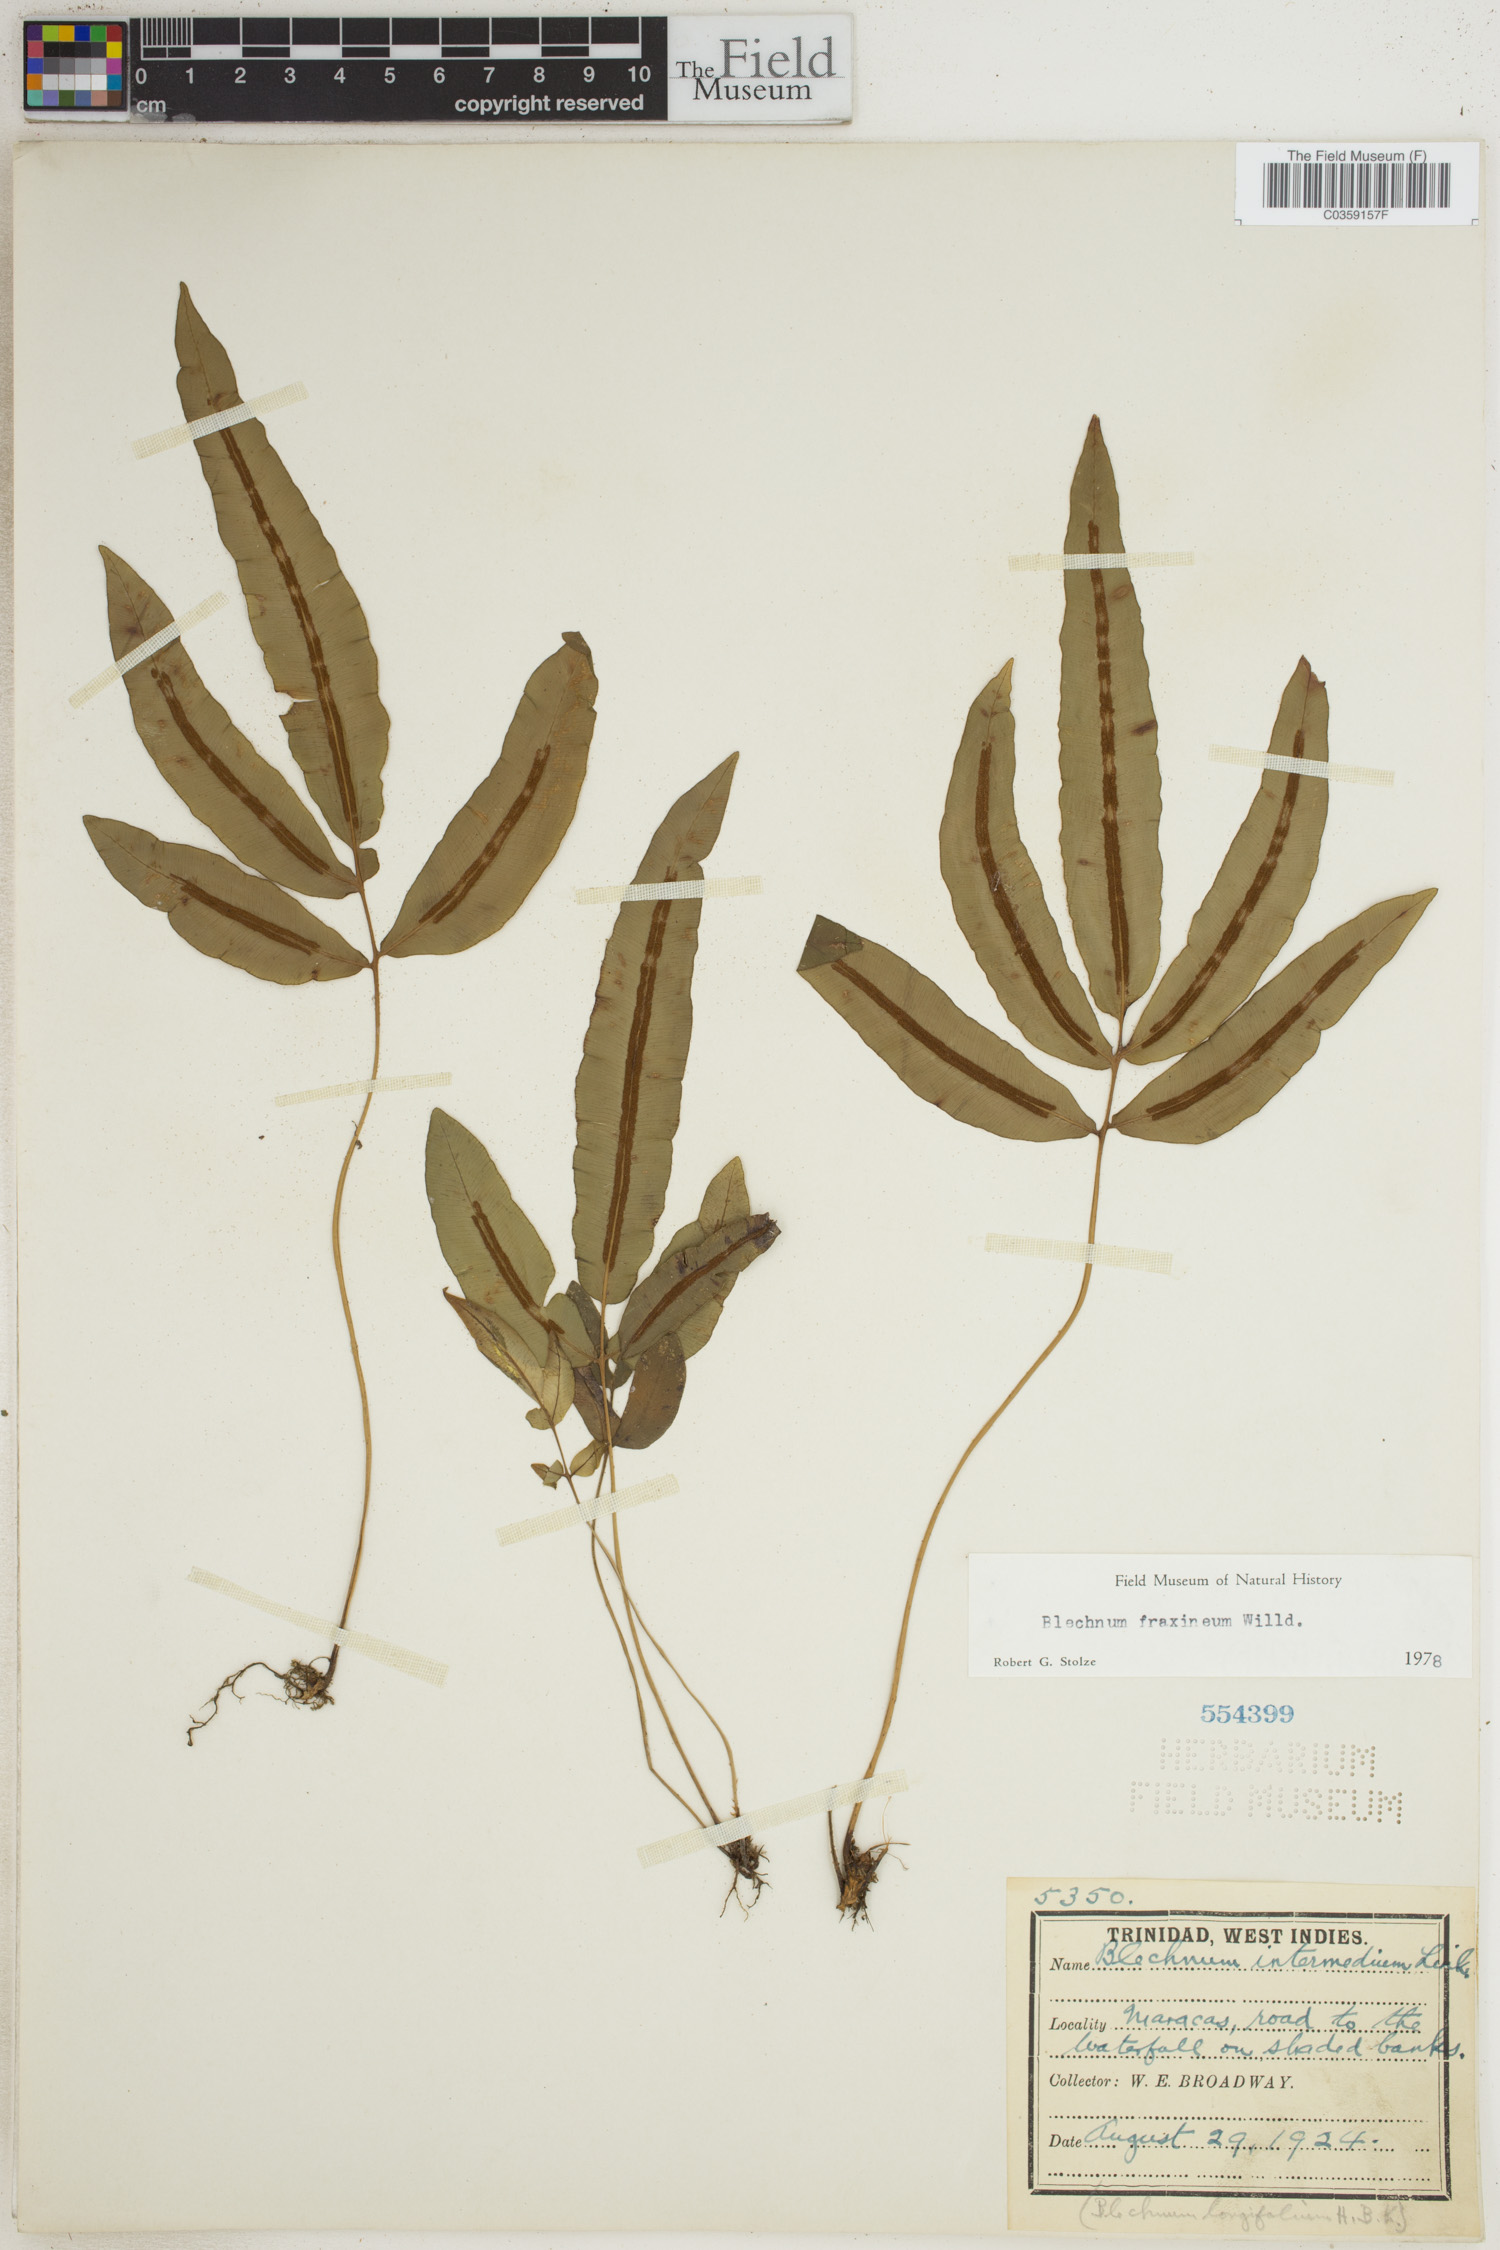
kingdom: Plantae
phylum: Tracheophyta
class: Polypodiopsida
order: Polypodiales
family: Blechnaceae
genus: Blechnum
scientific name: Blechnum gracile
